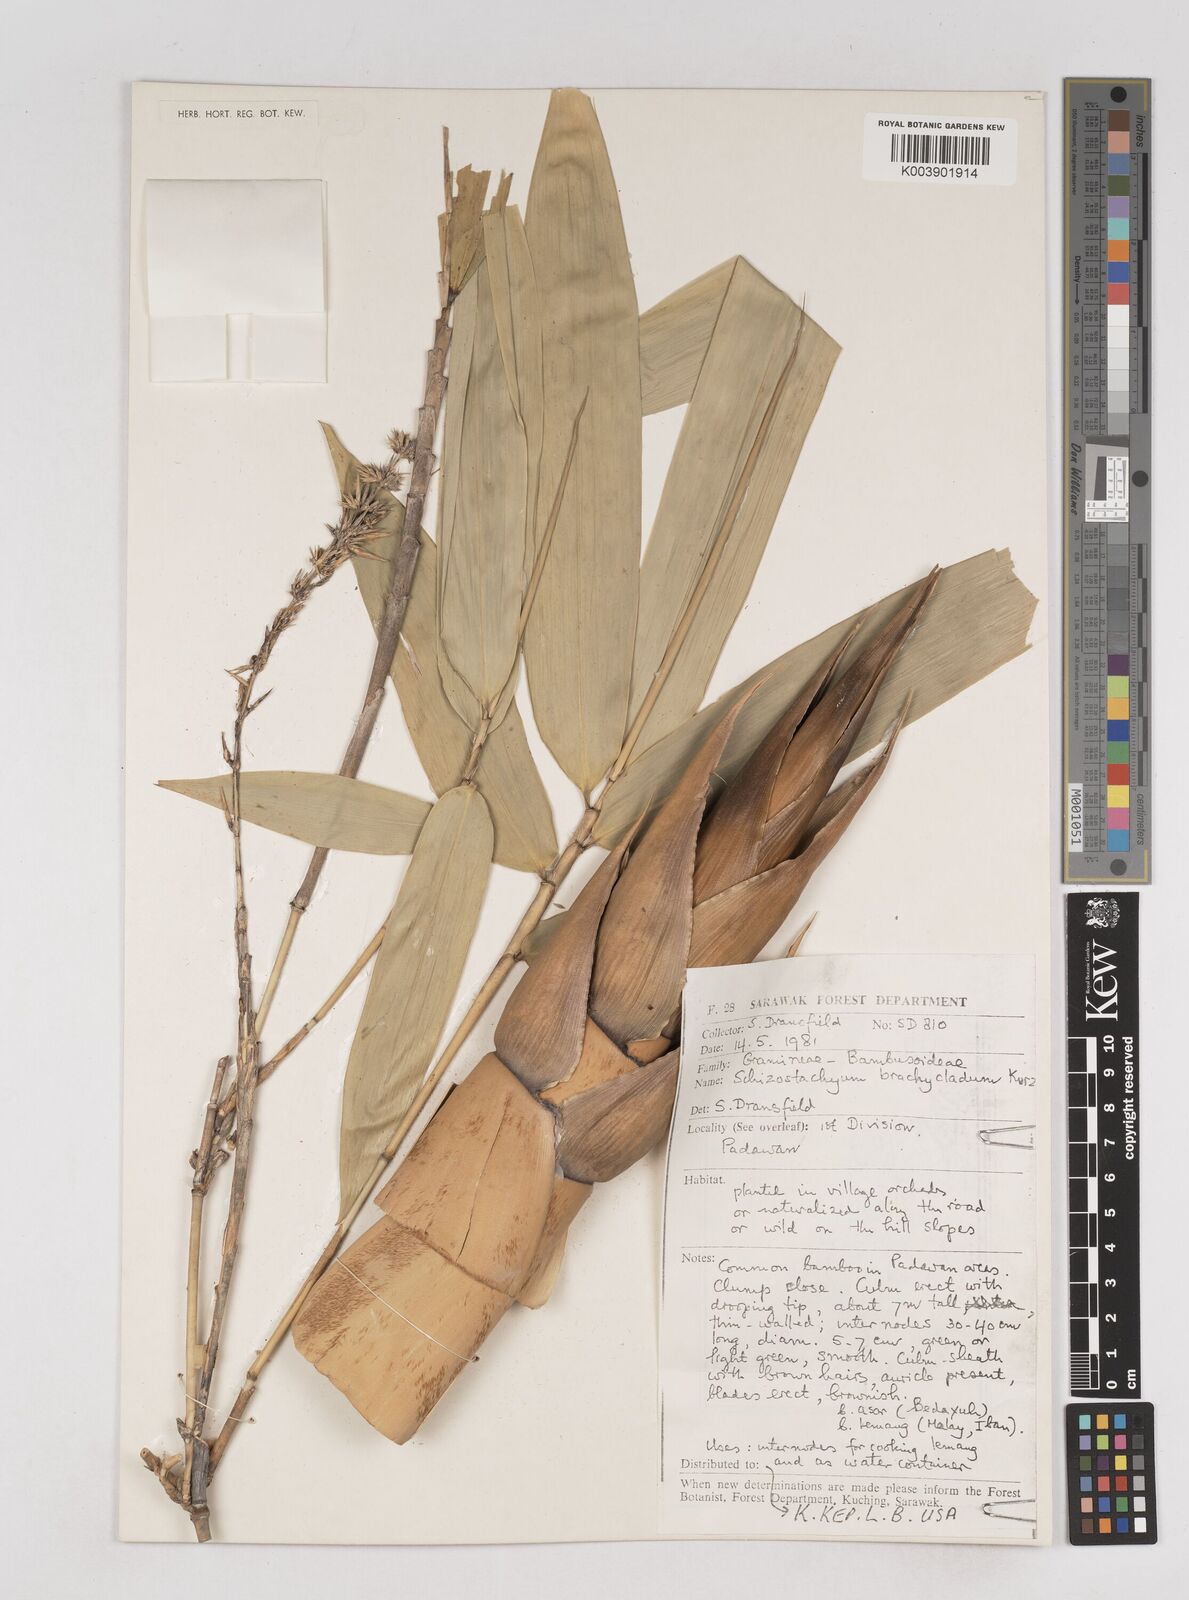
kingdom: Plantae
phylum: Tracheophyta
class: Liliopsida
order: Poales
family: Poaceae
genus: Schizostachyum
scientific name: Schizostachyum brachycladum
